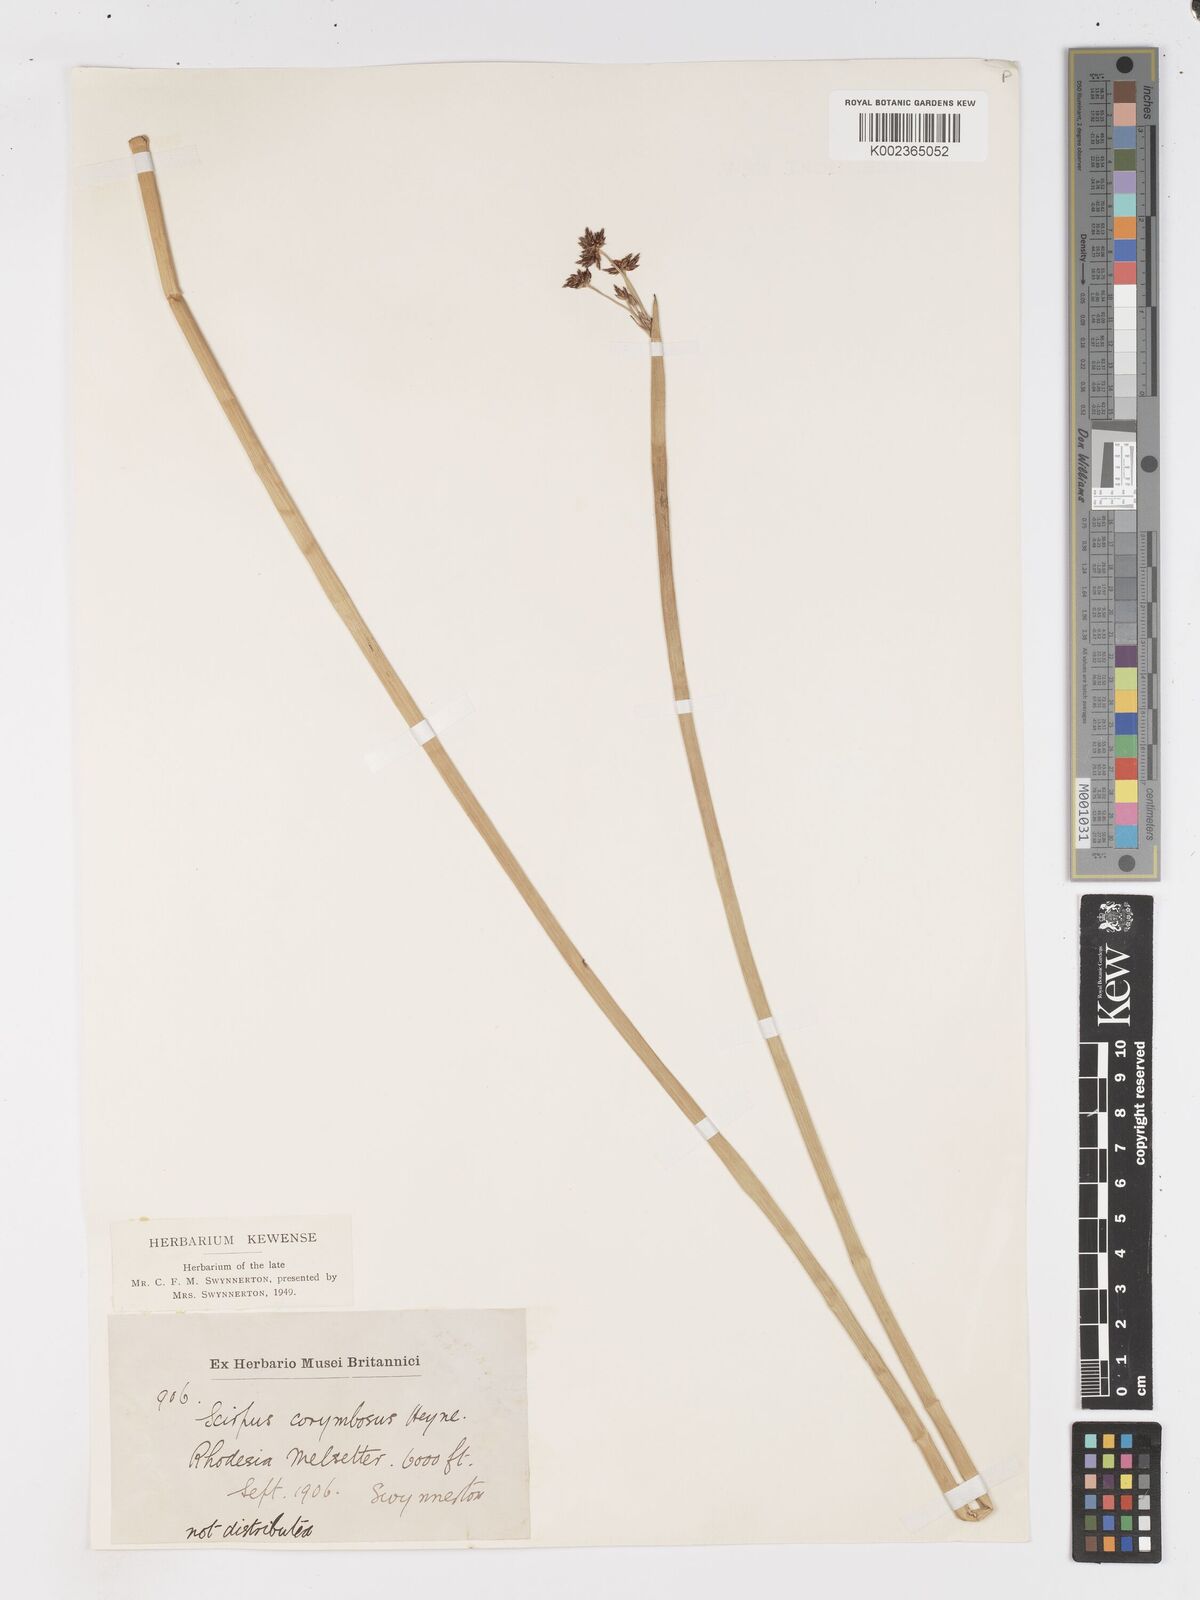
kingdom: Plantae
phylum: Tracheophyta
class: Liliopsida
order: Poales
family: Cyperaceae
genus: Schoenoplectus
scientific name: Schoenoplectus
